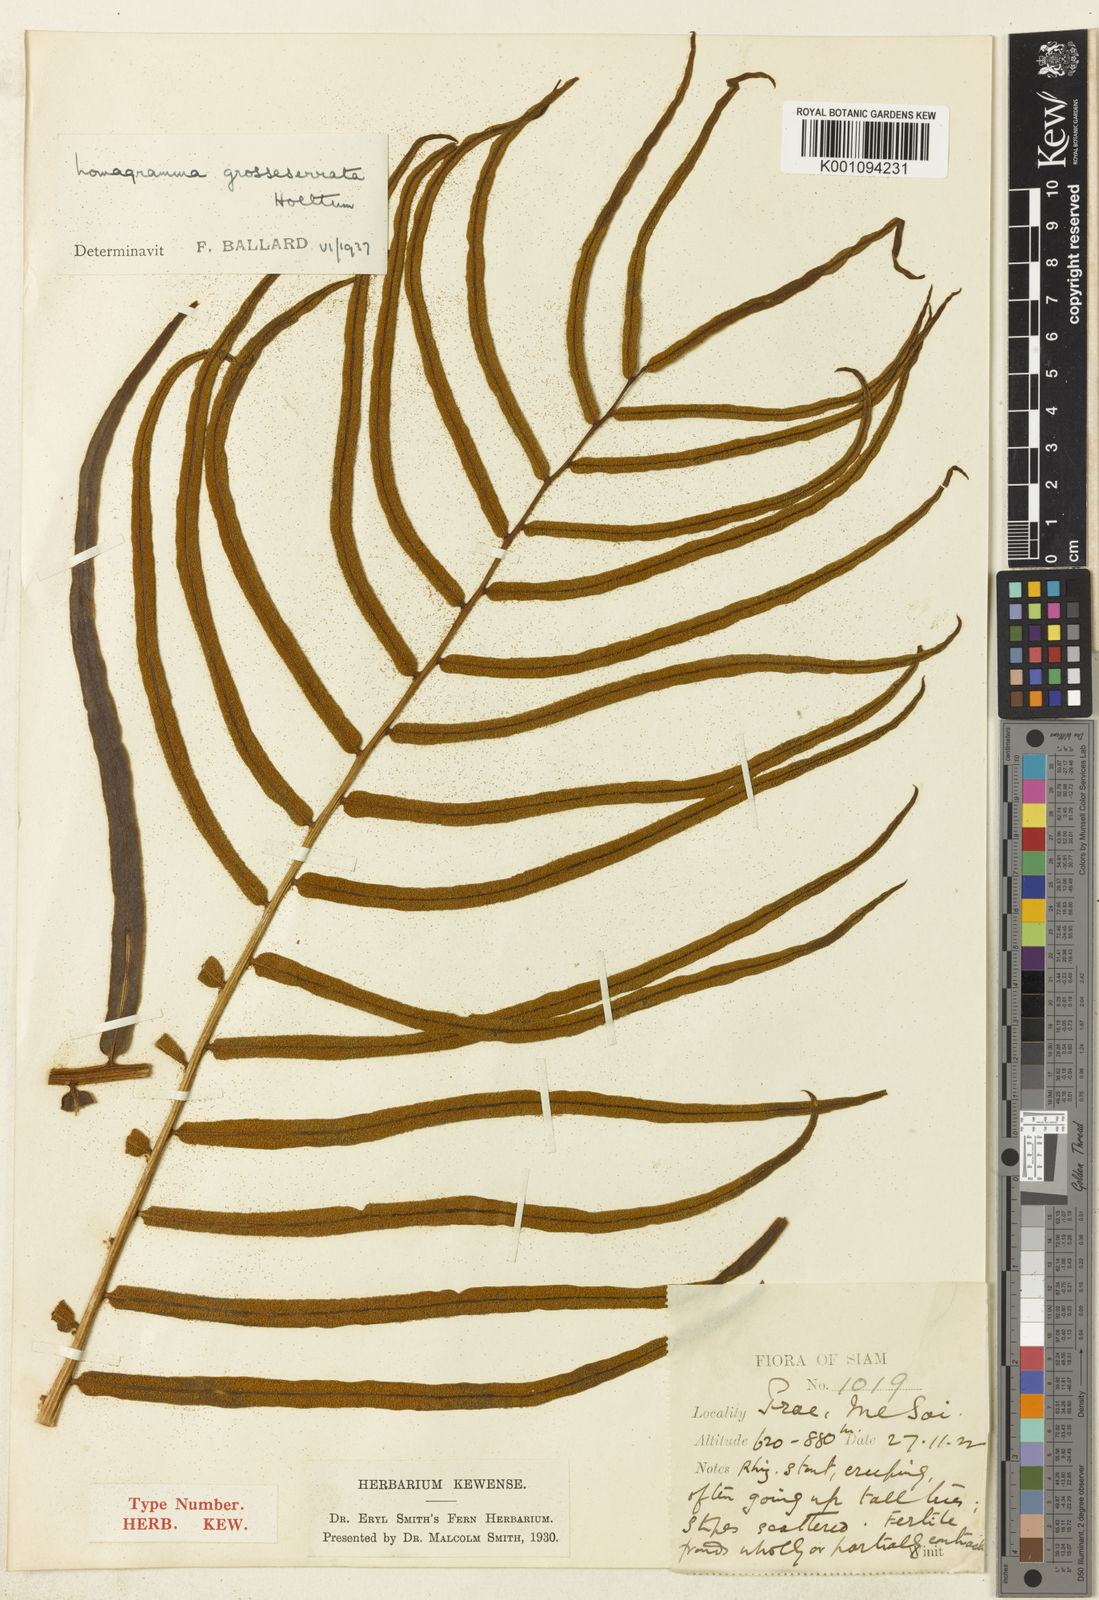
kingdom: Plantae
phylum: Tracheophyta
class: Polypodiopsida
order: Polypodiales
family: Dryopteridaceae
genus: Lomagramma
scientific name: Lomagramma sorbifolia
